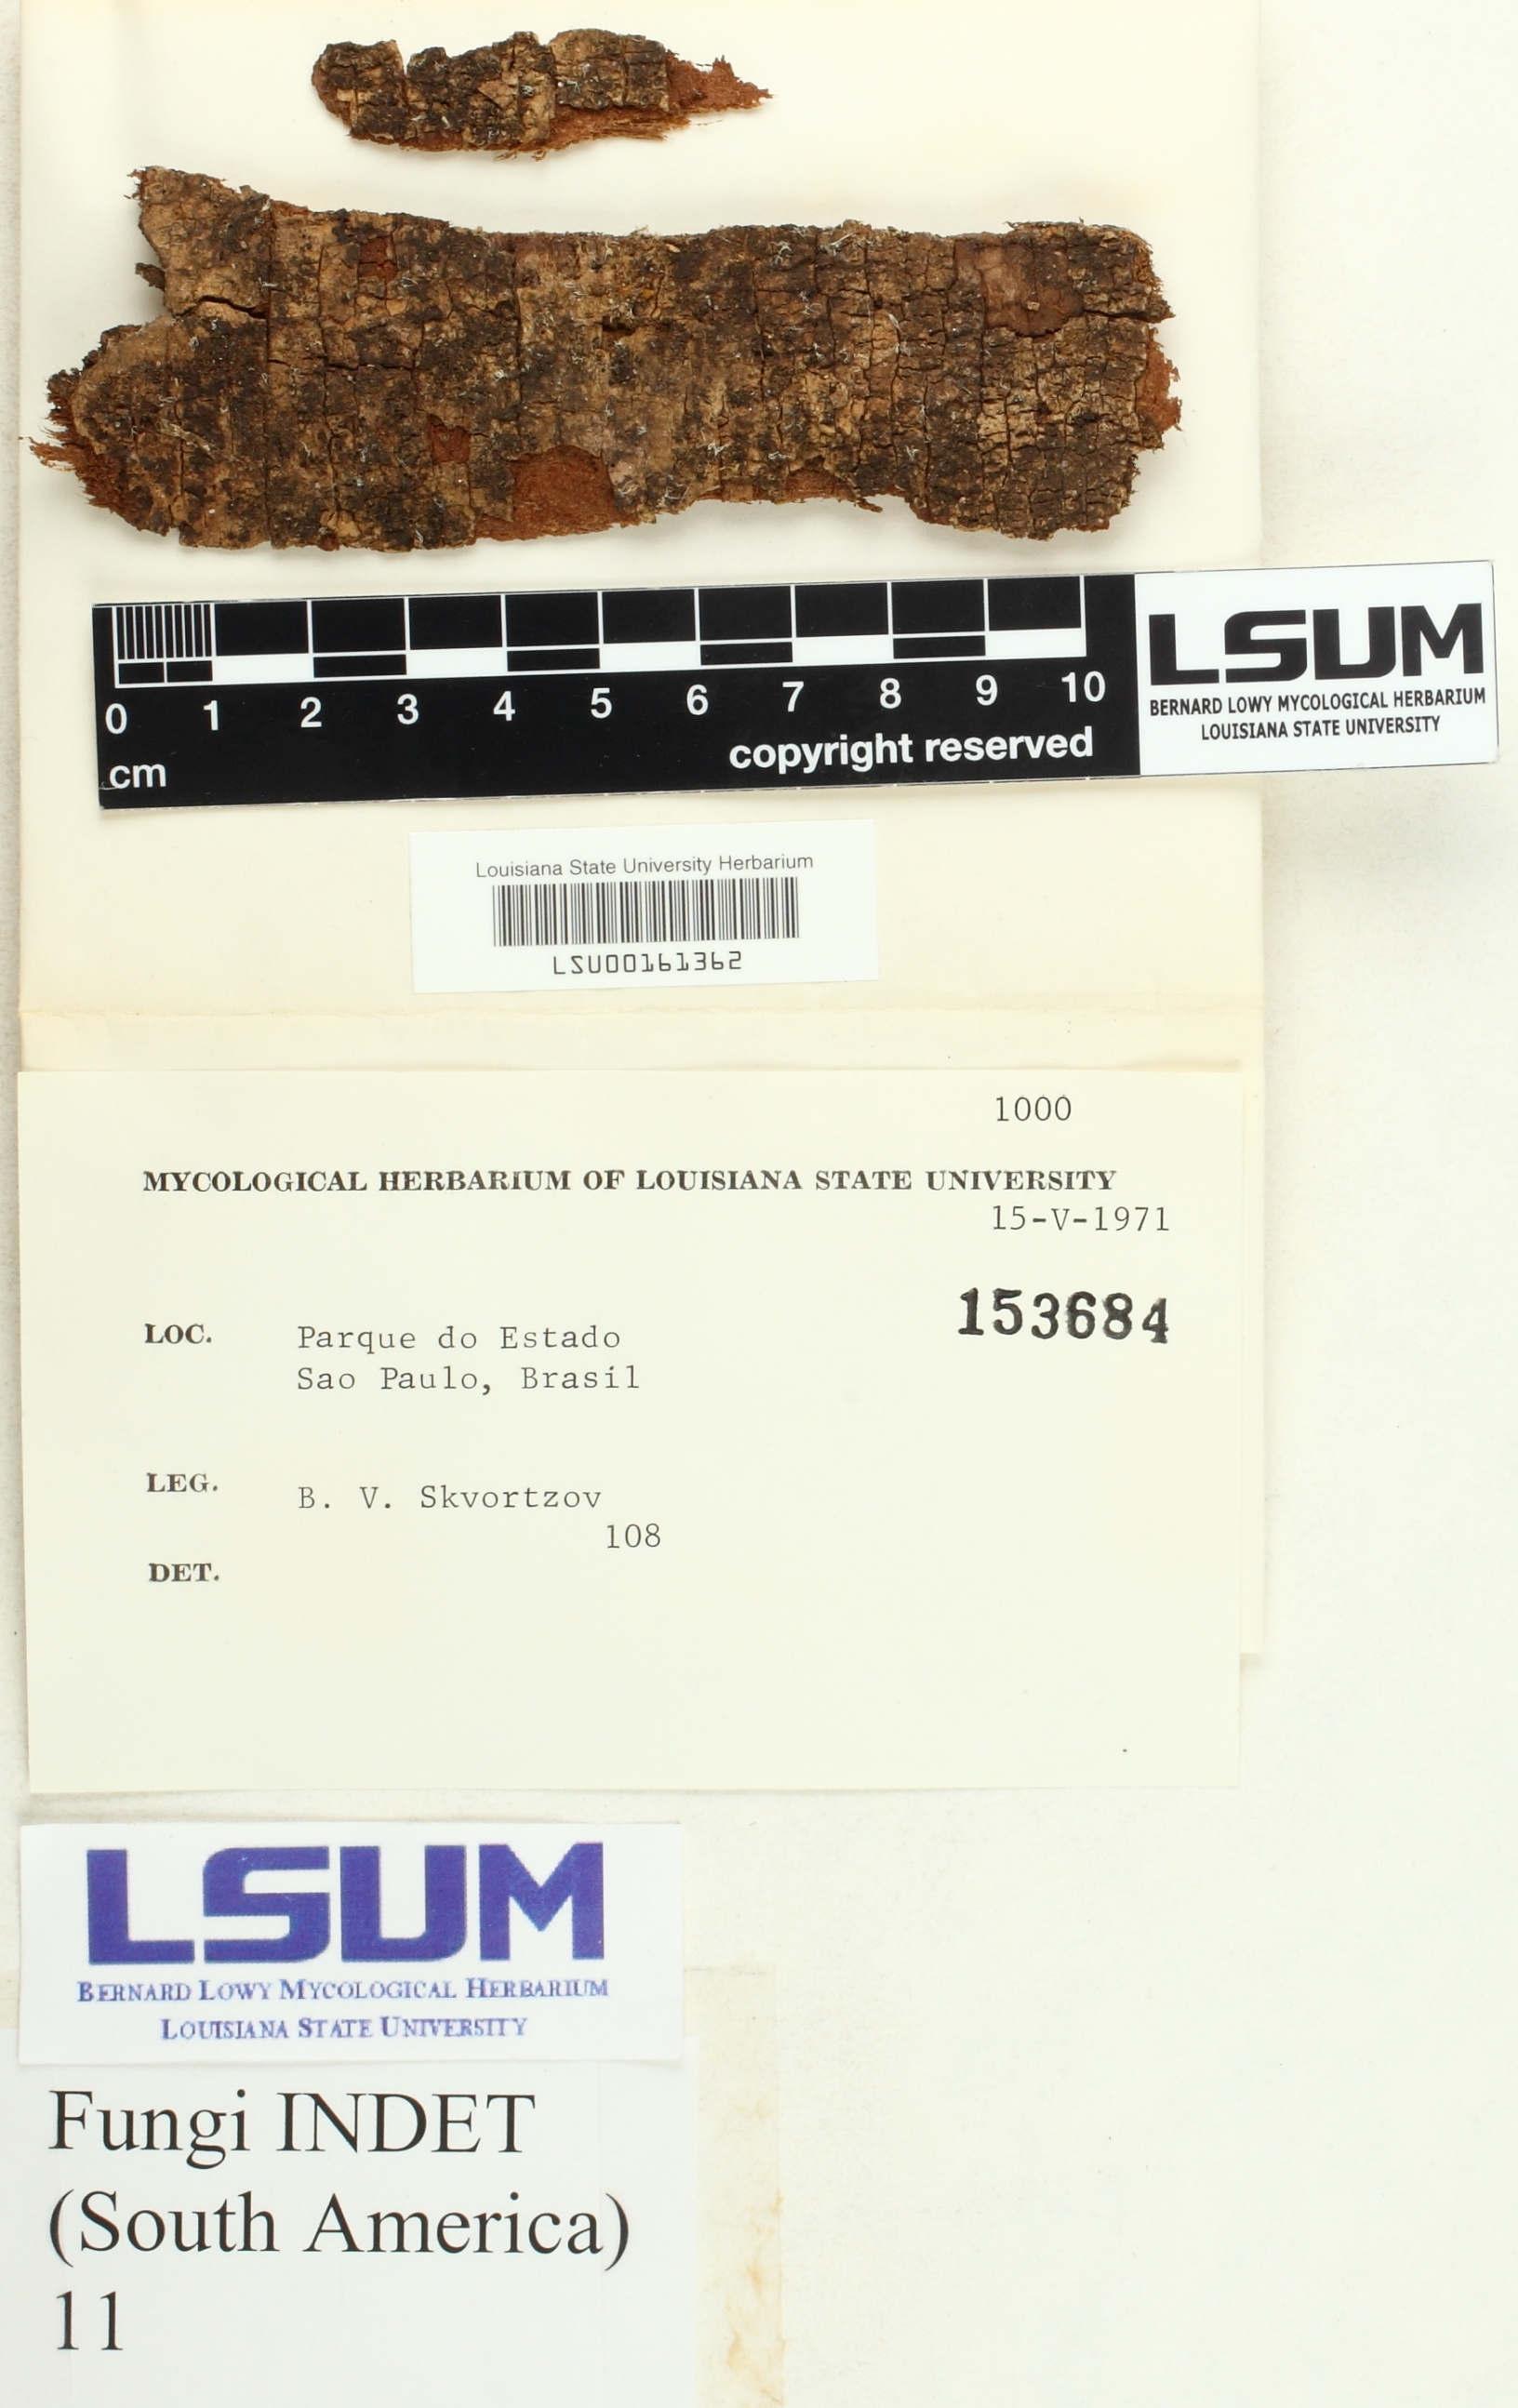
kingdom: Fungi
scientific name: Fungi
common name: Fungi
